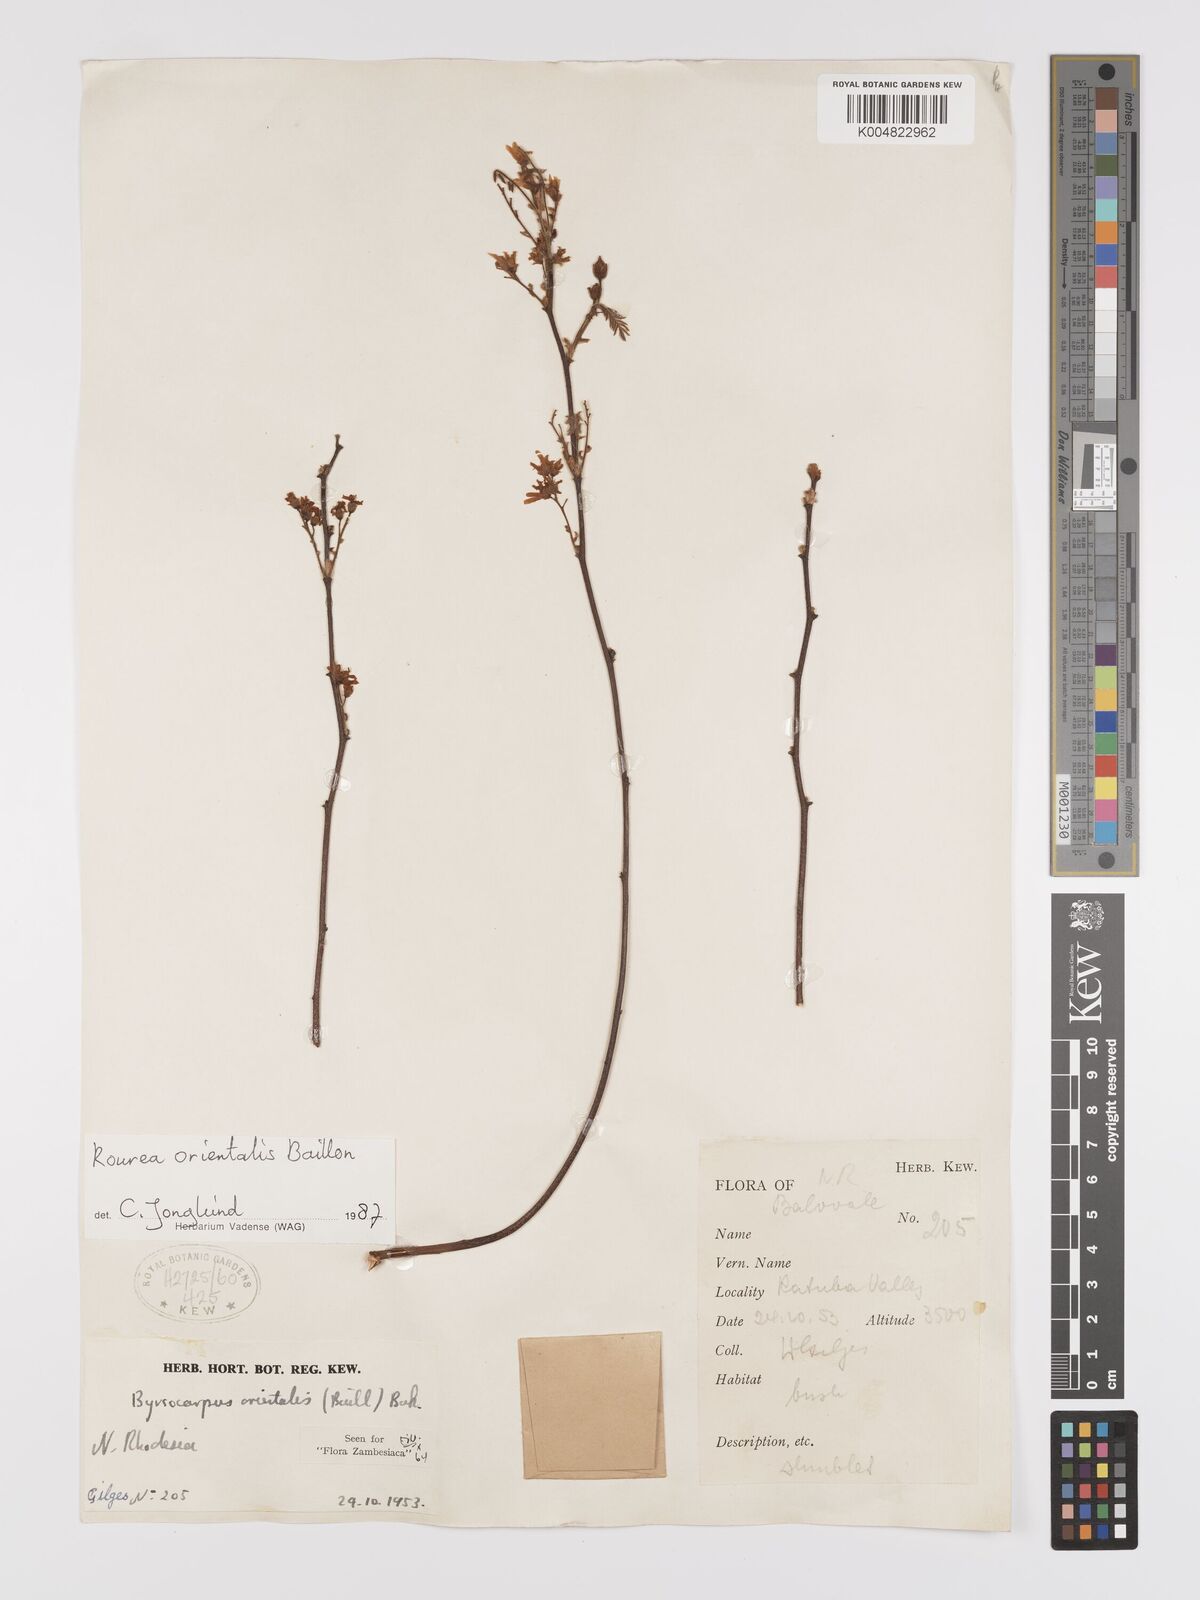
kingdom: Plantae
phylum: Tracheophyta
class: Magnoliopsida
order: Oxalidales
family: Connaraceae
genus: Rourea
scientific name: Rourea orientalis
